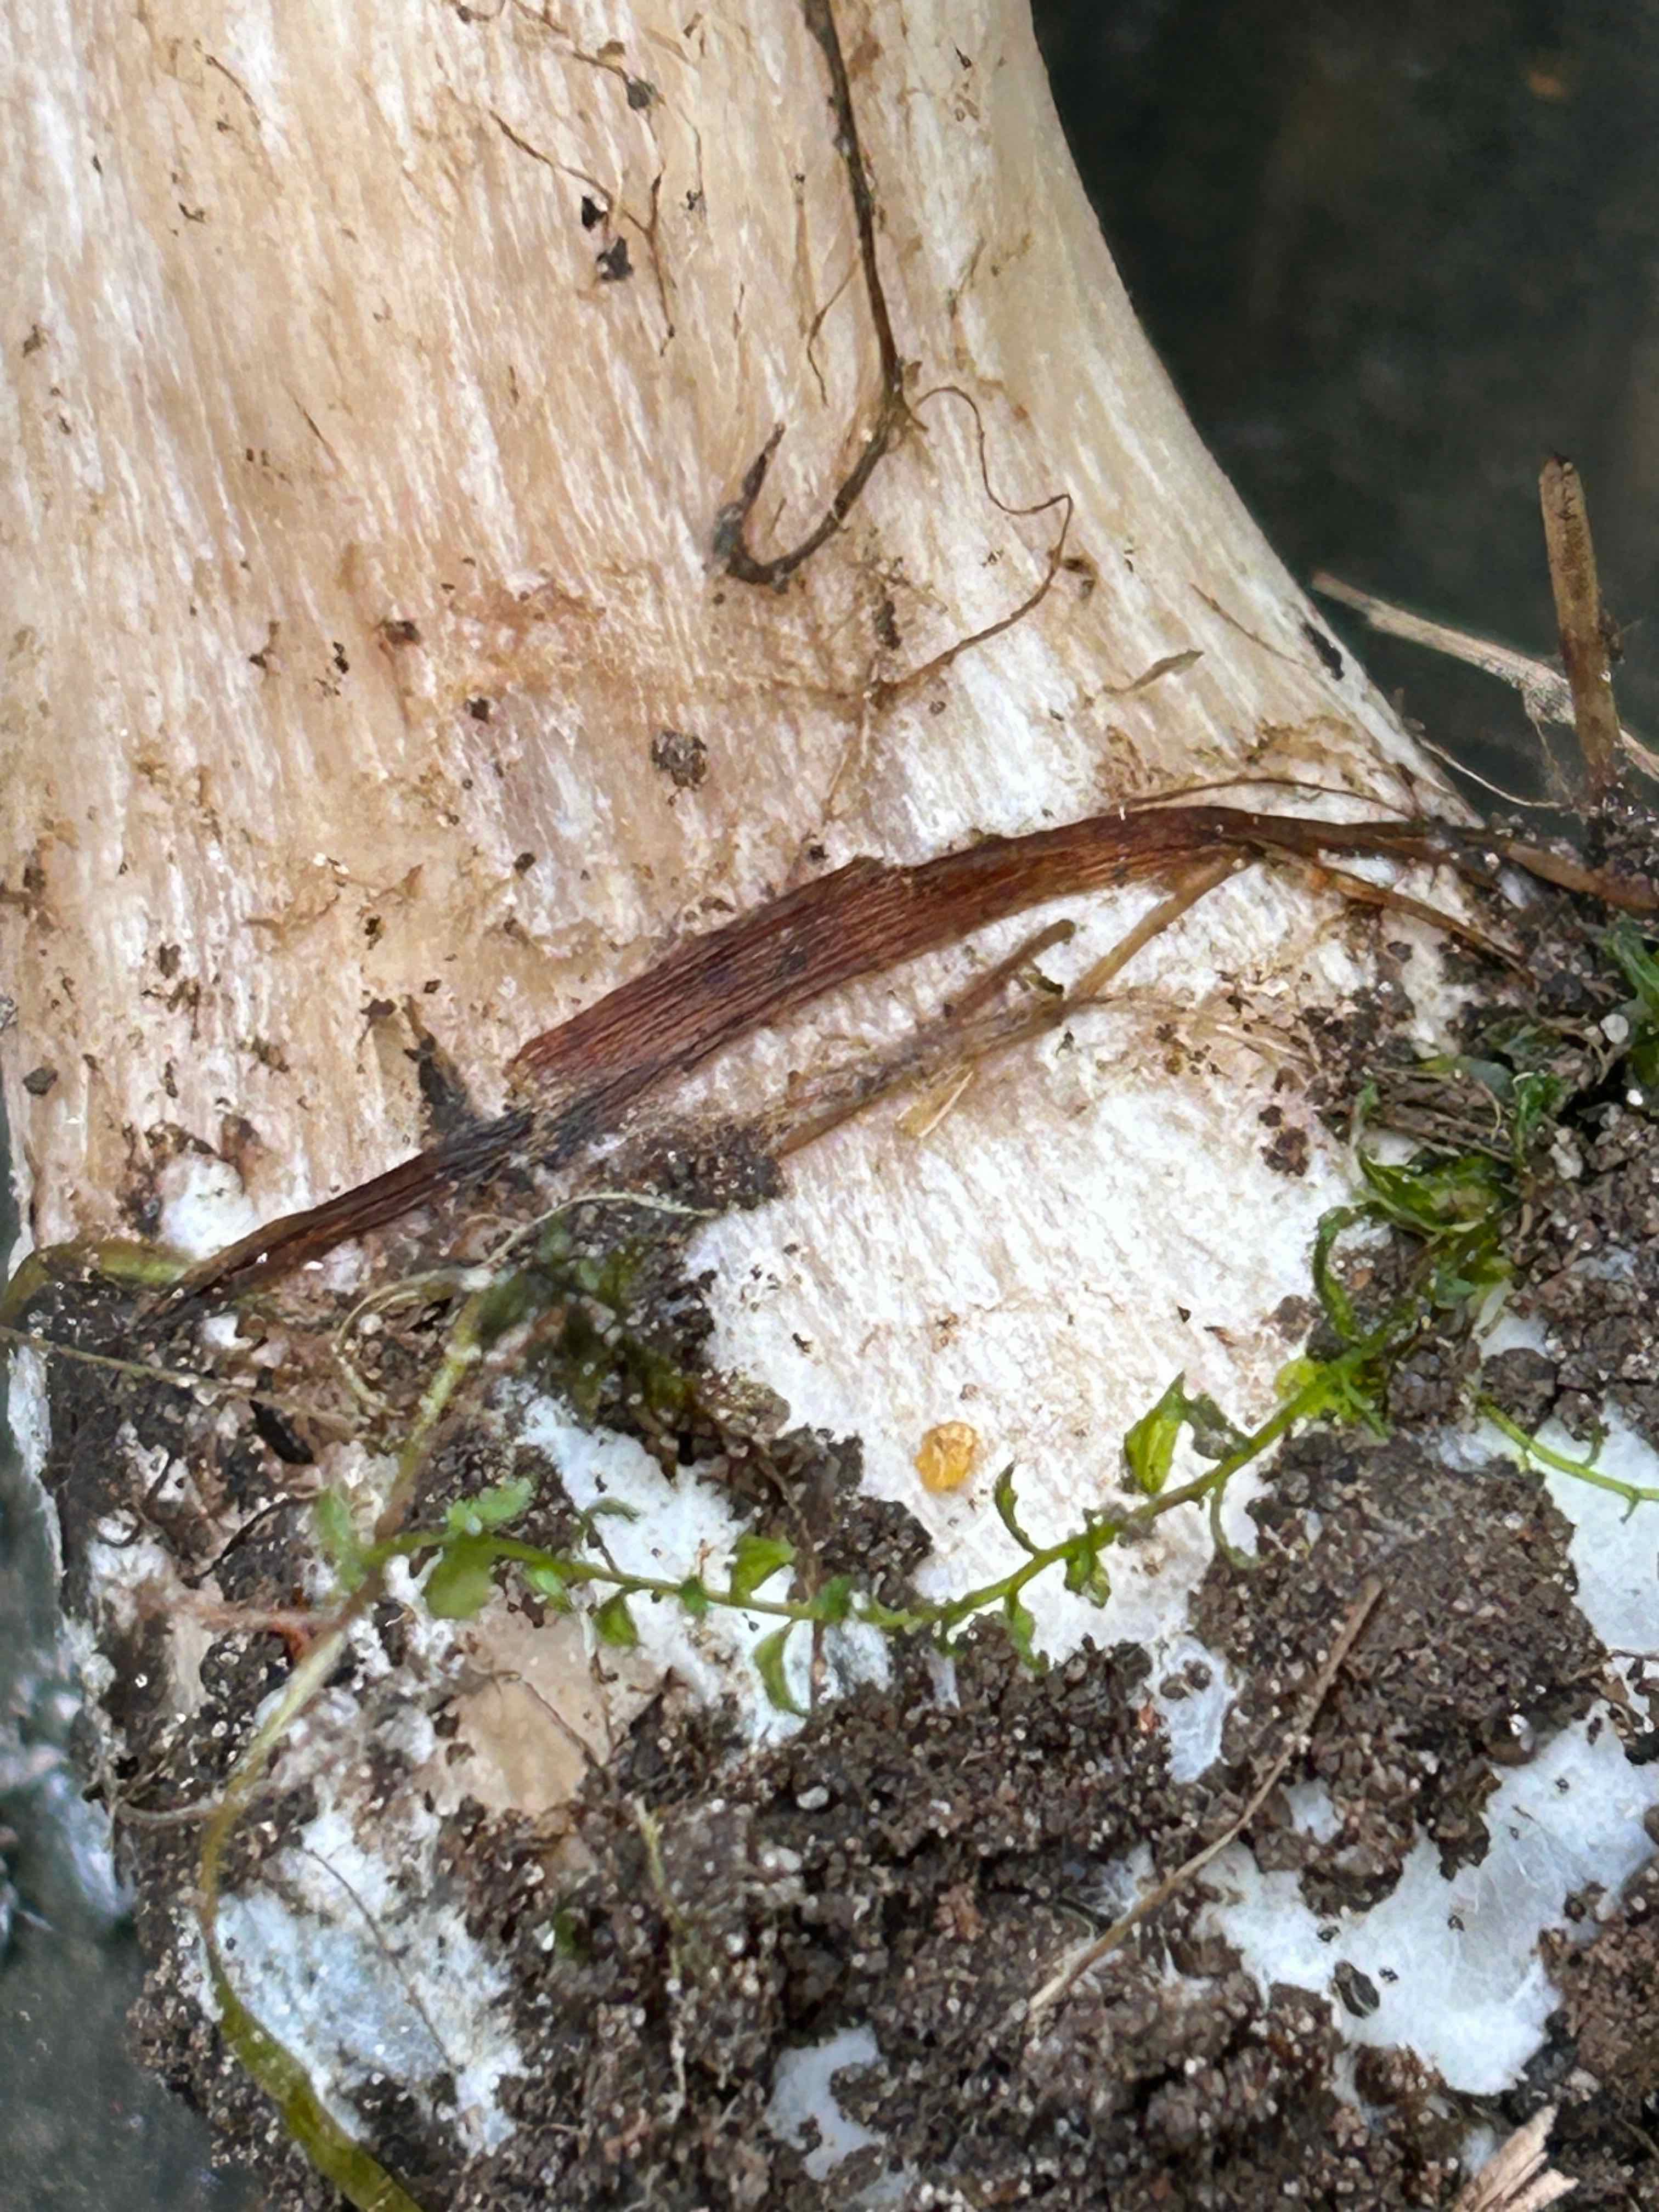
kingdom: Fungi
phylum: Basidiomycota
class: Agaricomycetes
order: Agaricales
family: Tricholomataceae
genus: Lepista
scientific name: Lepista irina
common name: violduftende hekseringshat
